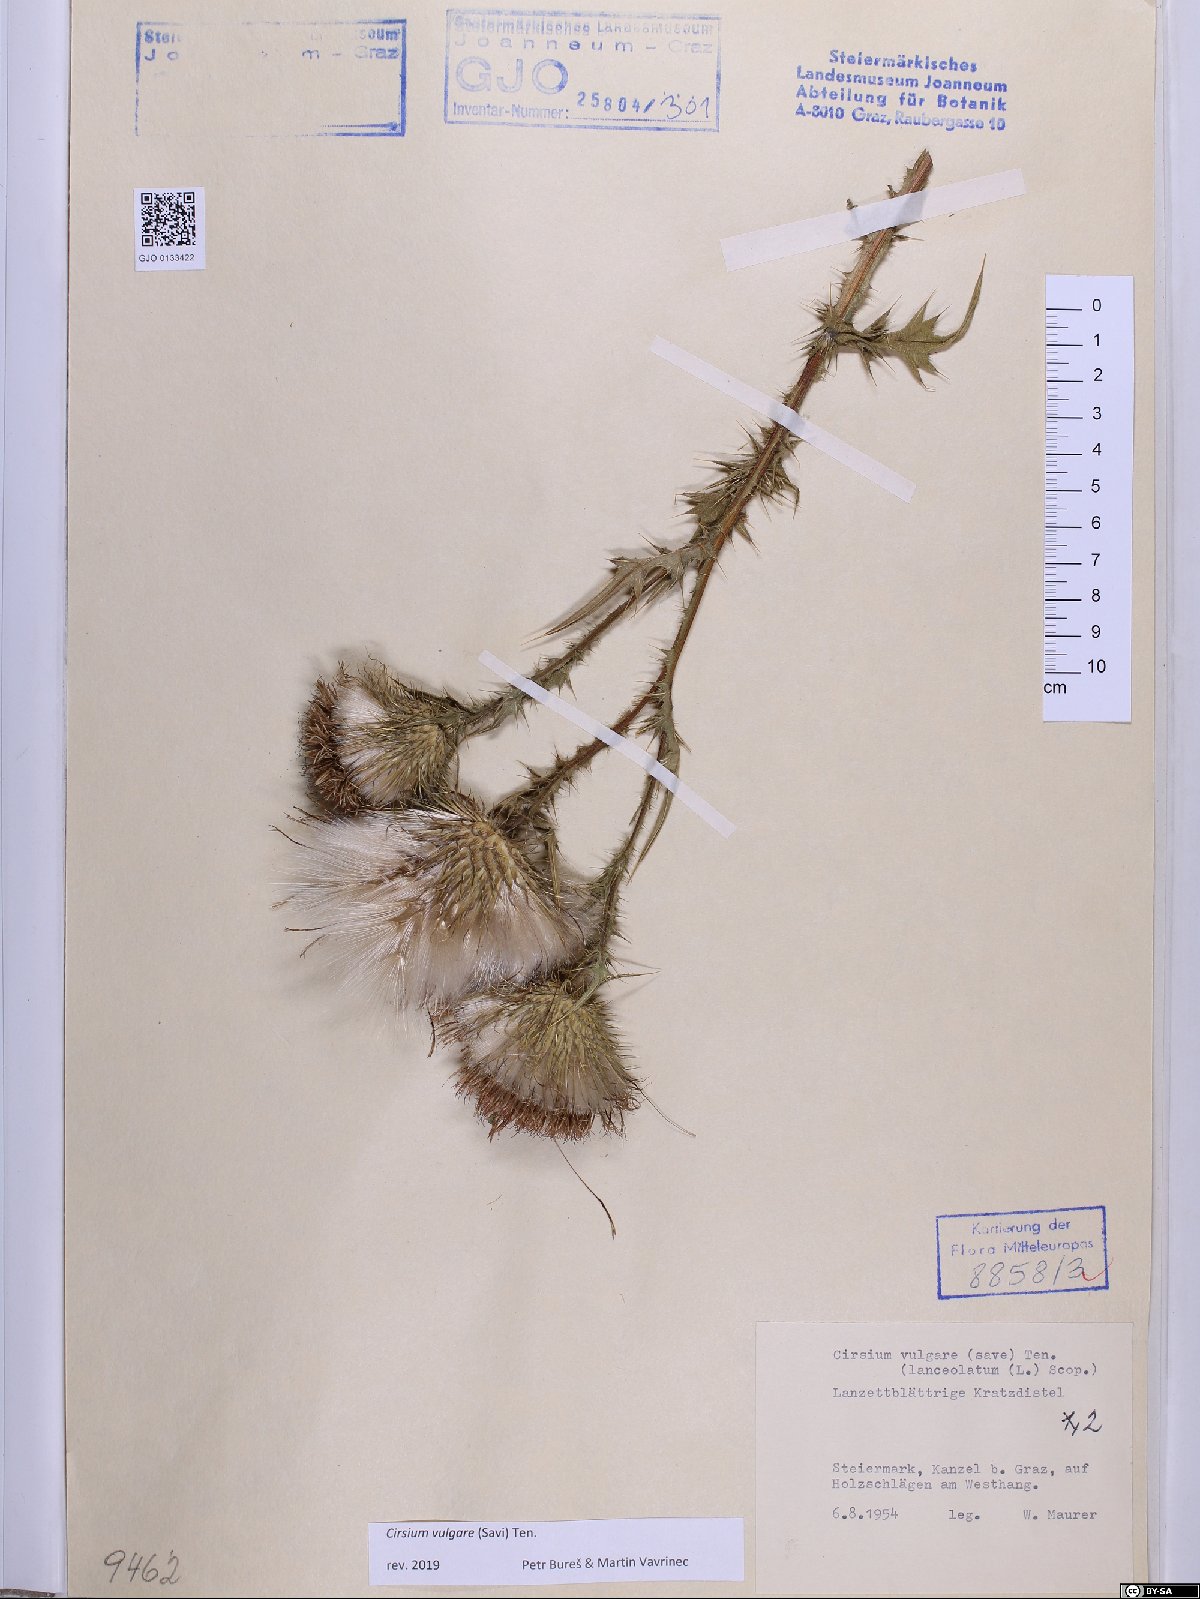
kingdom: Plantae
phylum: Tracheophyta
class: Magnoliopsida
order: Asterales
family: Asteraceae
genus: Cirsium
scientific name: Cirsium vulgare
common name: Bull thistle
